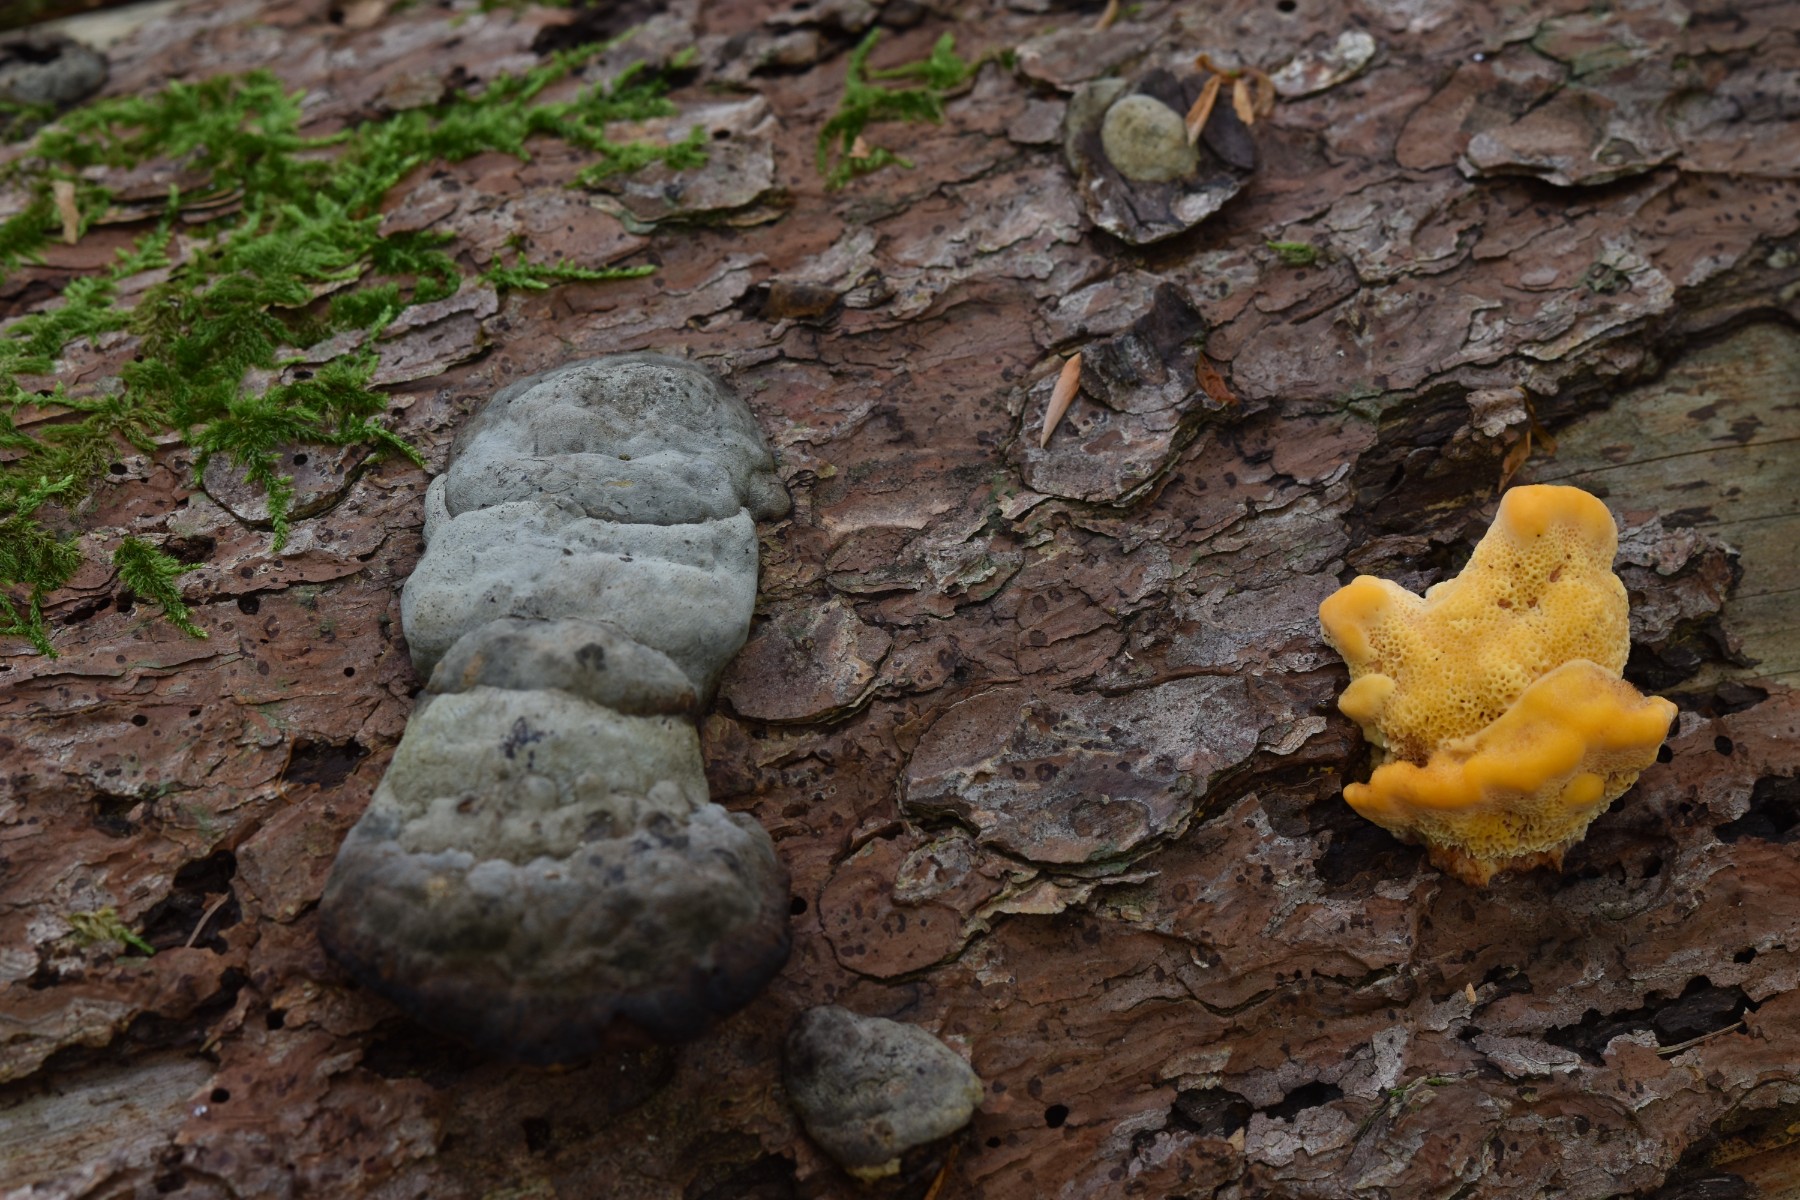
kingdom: Fungi
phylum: Basidiomycota
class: Agaricomycetes
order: Polyporales
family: Pycnoporellaceae
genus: Pycnoporellus
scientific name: Pycnoporellus fulgens
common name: flammeporesvamp
